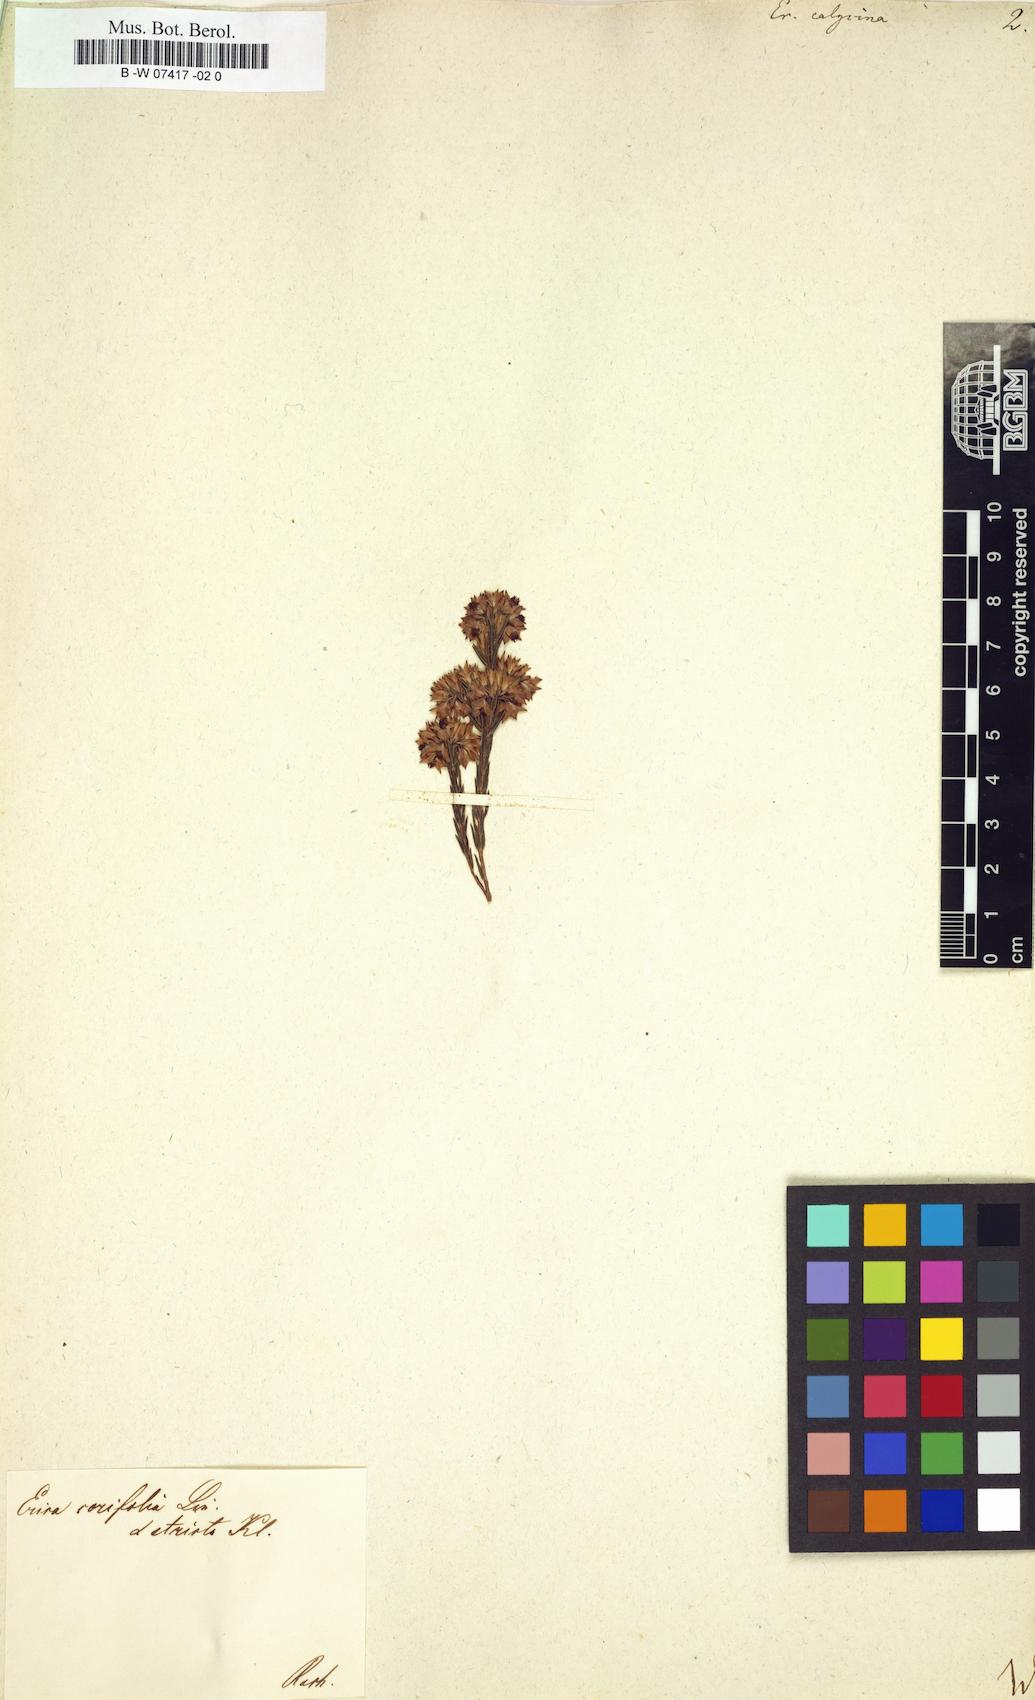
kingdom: Plantae
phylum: Tracheophyta
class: Magnoliopsida
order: Ericales
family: Ericaceae
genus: Erica
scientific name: Erica corifolia
